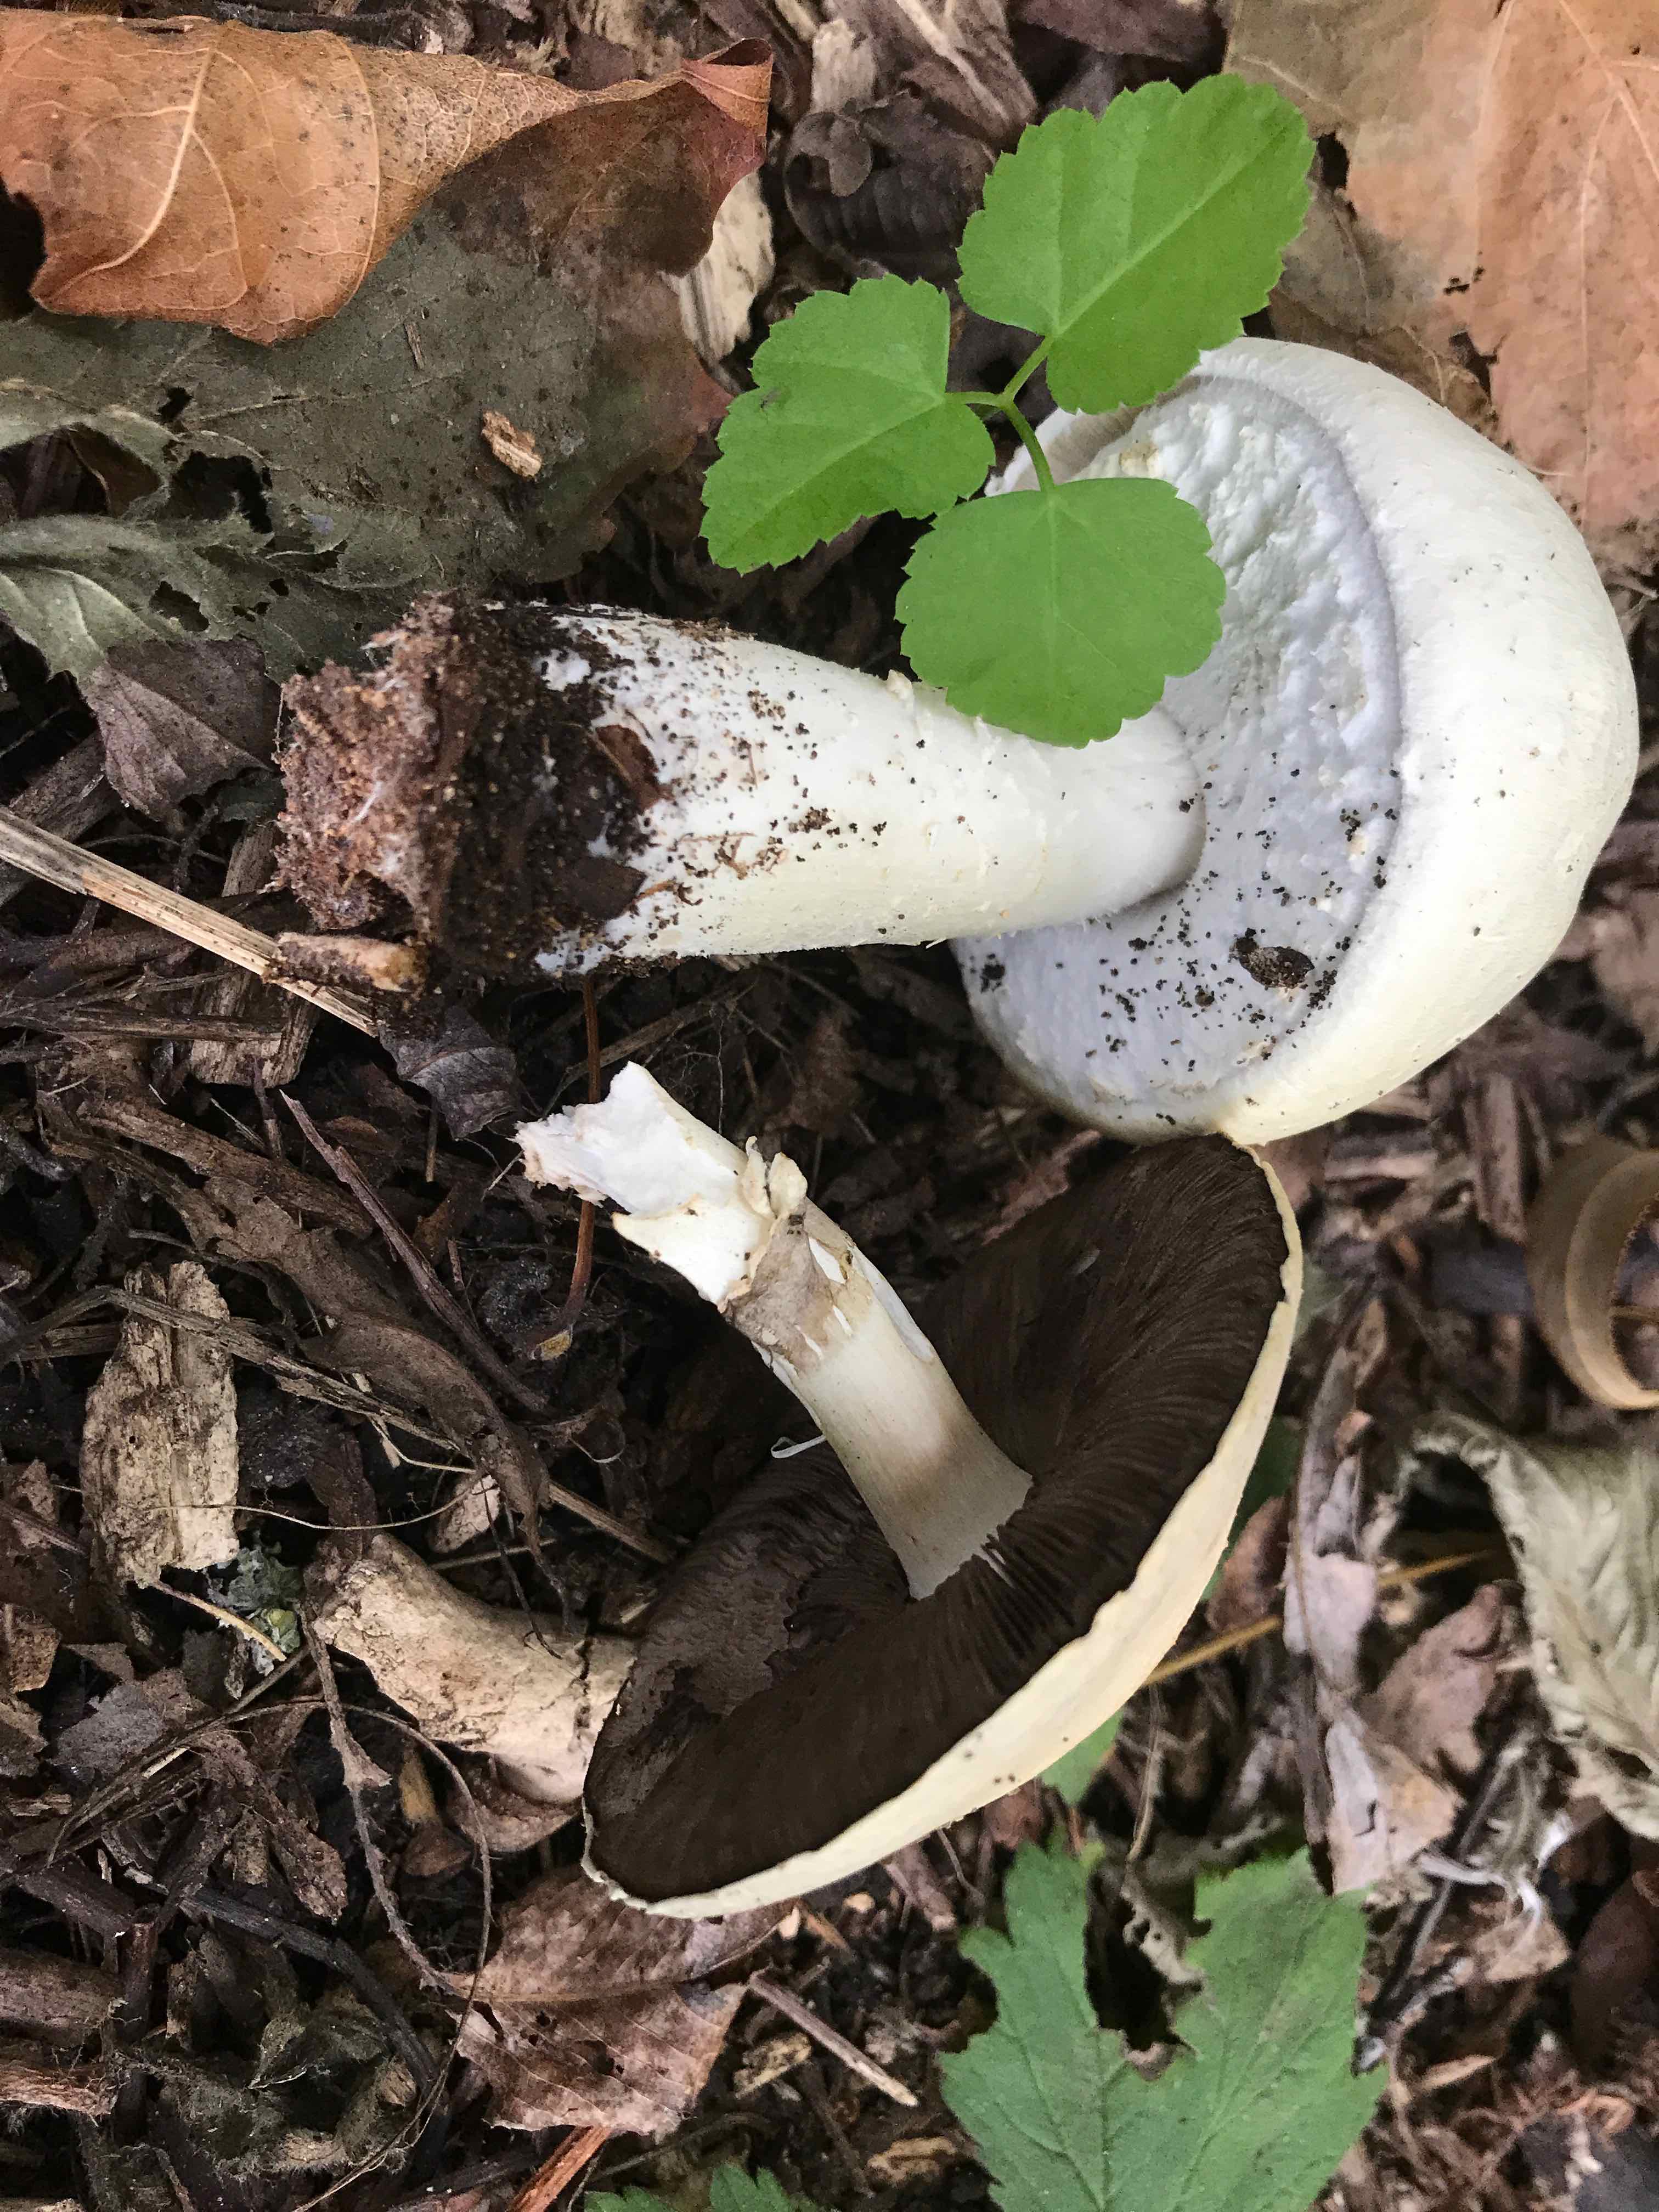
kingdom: Fungi
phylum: Basidiomycota
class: Agaricomycetes
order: Agaricales
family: Agaricaceae
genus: Agaricus
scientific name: Agaricus arvensis
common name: ager-champignon
